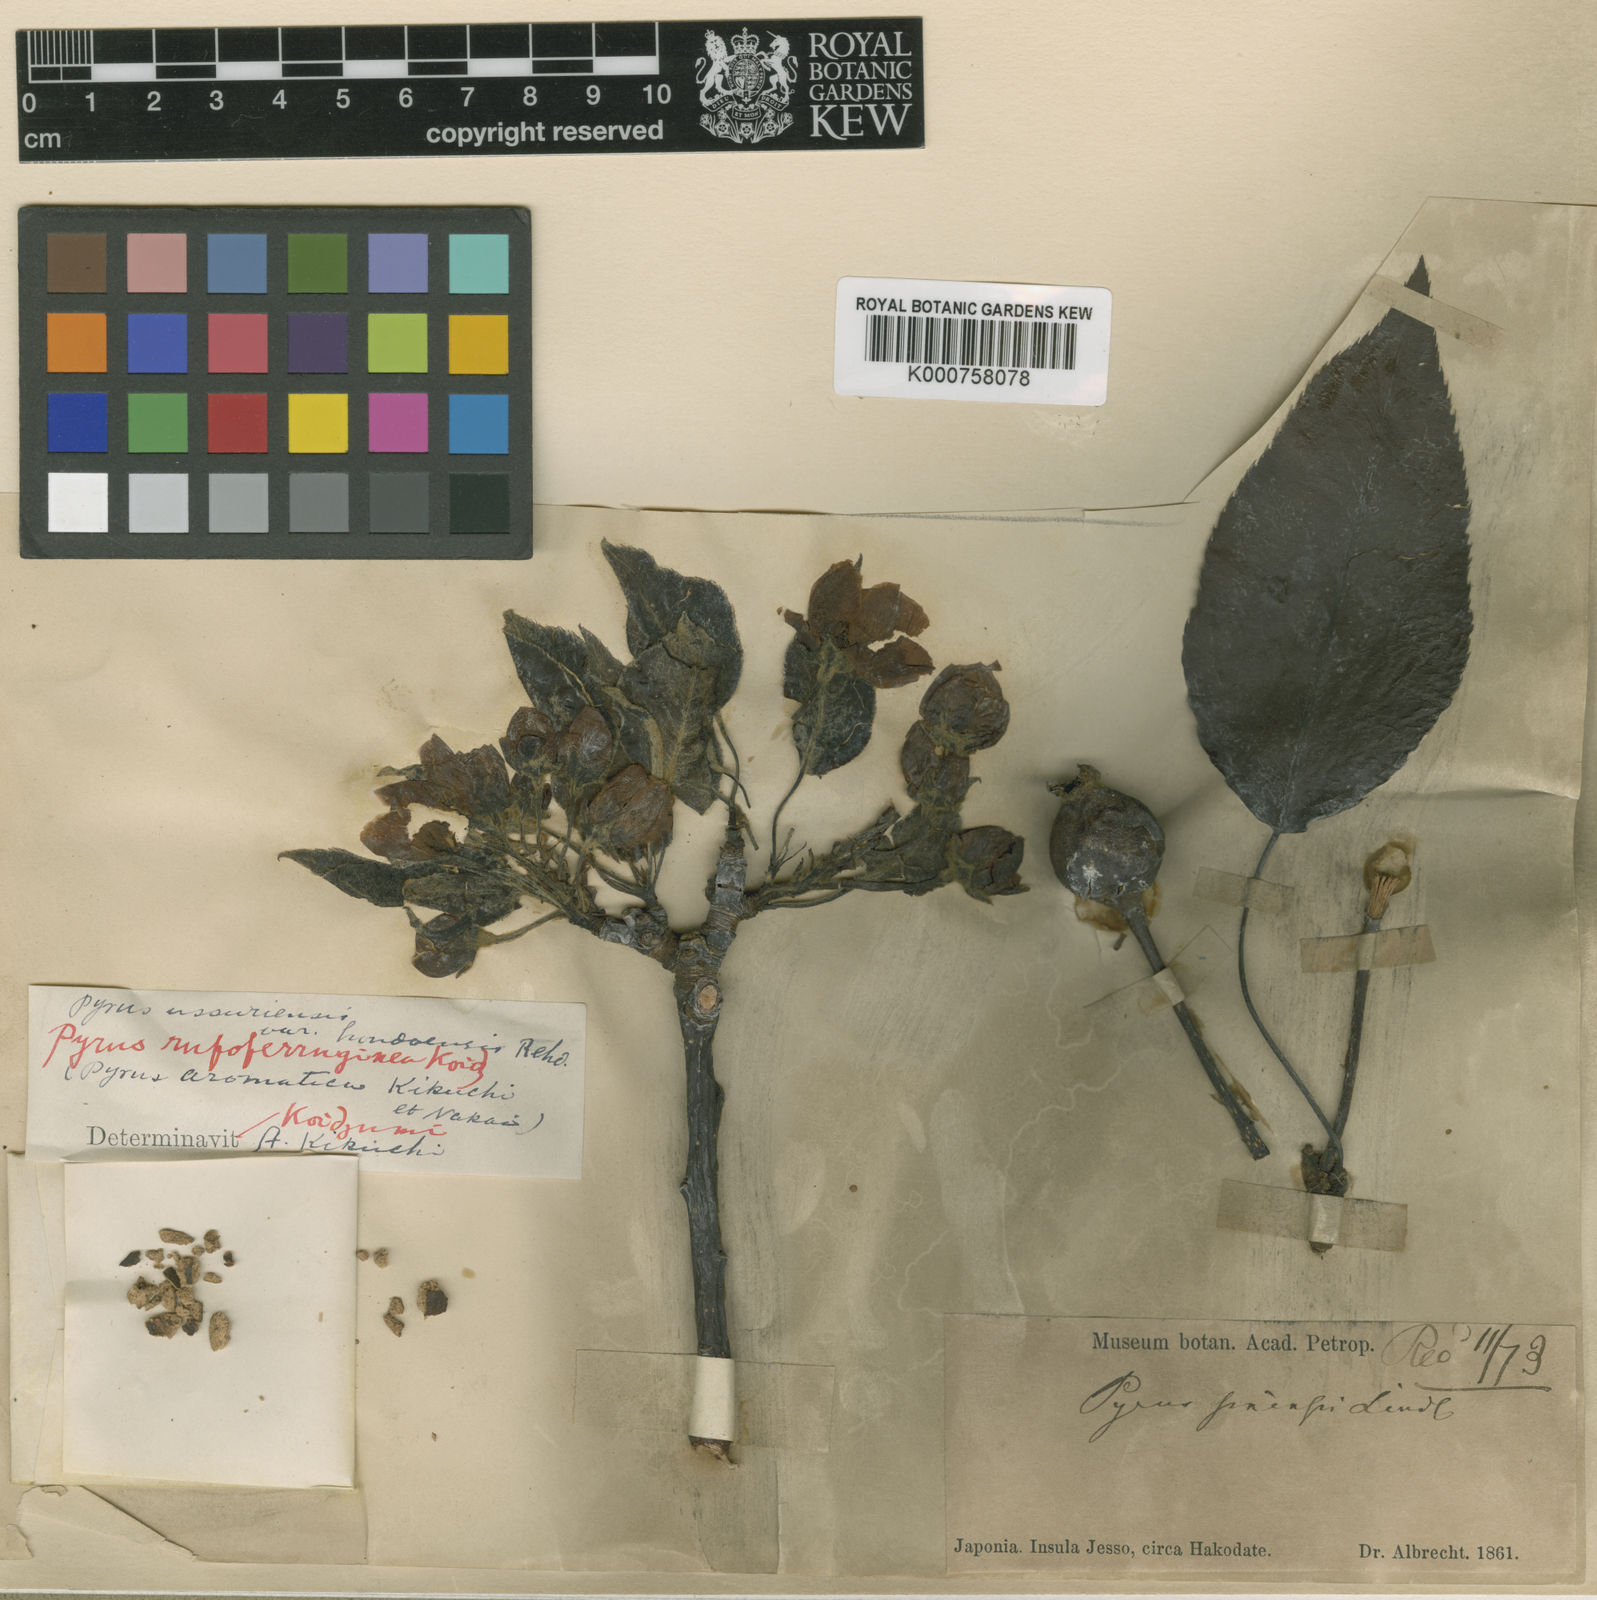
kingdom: Plantae
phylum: Tracheophyta
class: Magnoliopsida
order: Rosales
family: Rosaceae
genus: Pyrus
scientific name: Pyrus ussuriensis
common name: Harbin pear
